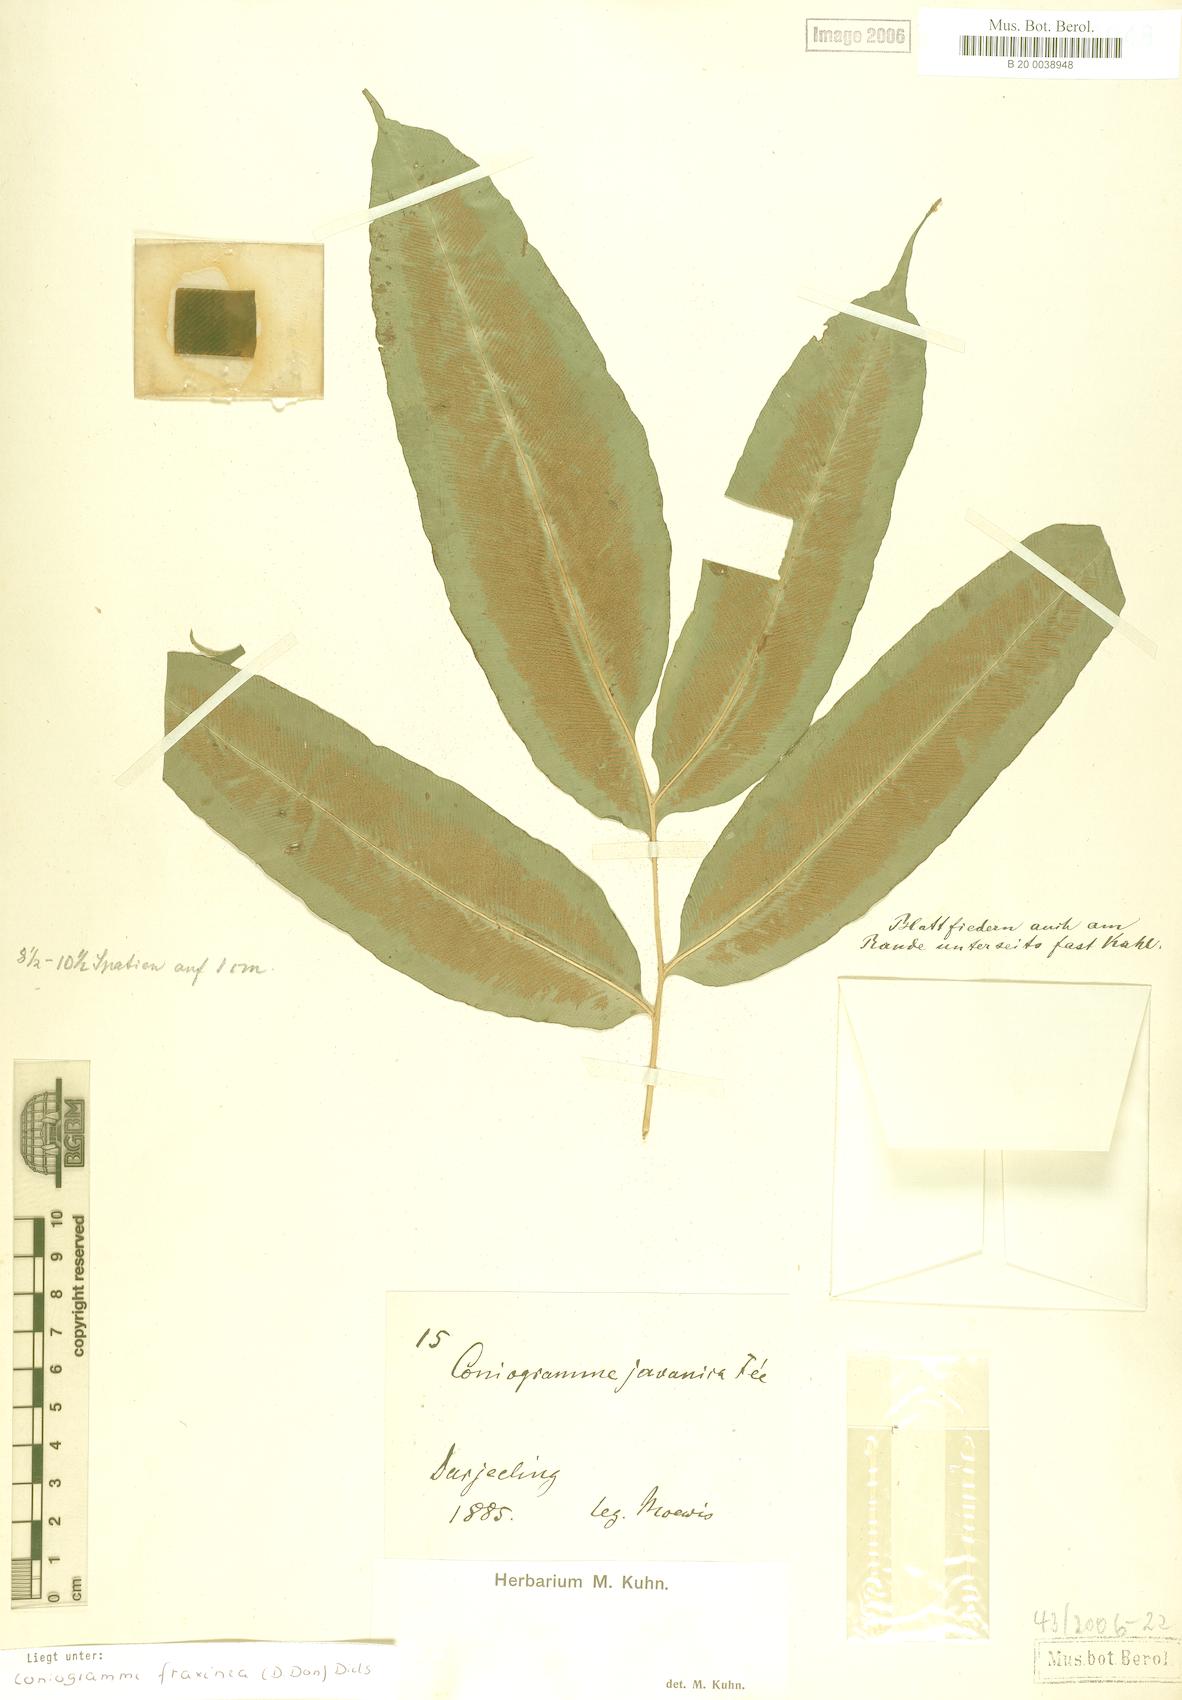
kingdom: Plantae
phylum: Tracheophyta
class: Polypodiopsida
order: Polypodiales
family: Pteridaceae
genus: Coniogramme
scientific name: Coniogramme fraxinea
